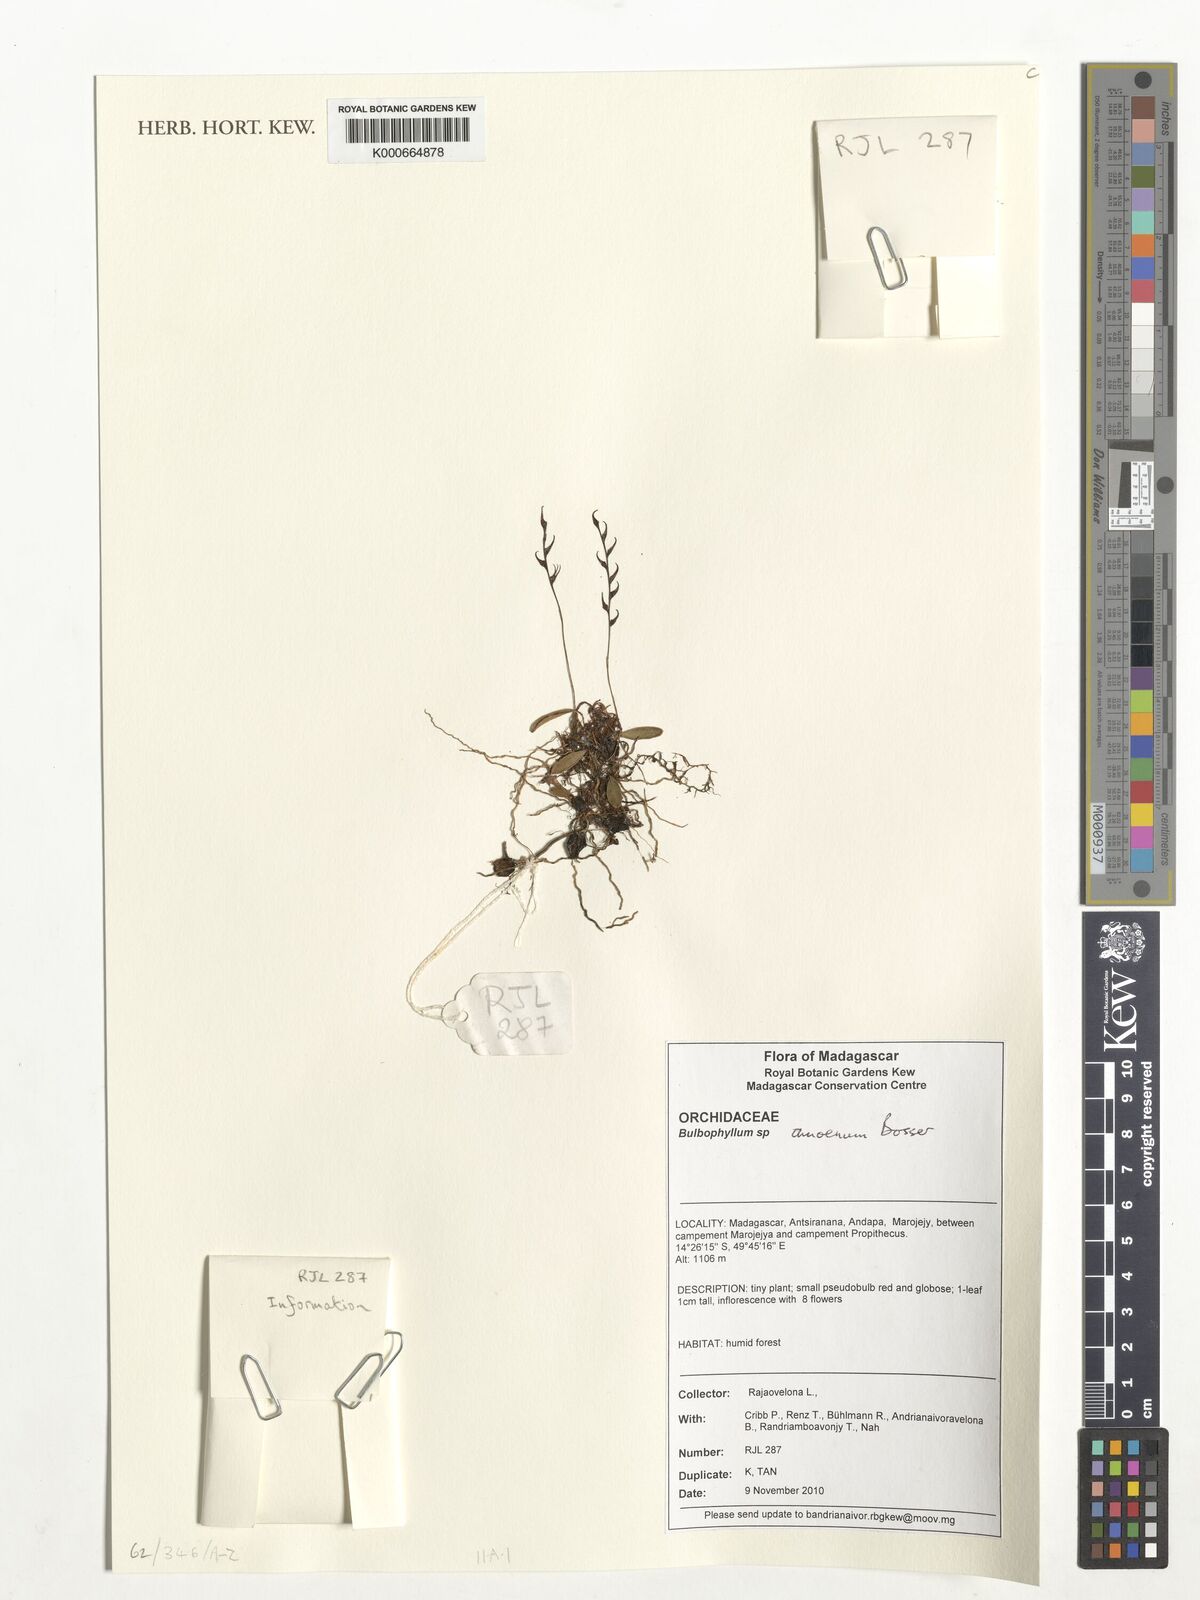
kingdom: Plantae
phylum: Tracheophyta
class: Liliopsida
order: Asparagales
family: Orchidaceae
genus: Bulbophyllum
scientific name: Bulbophyllum amoenum
